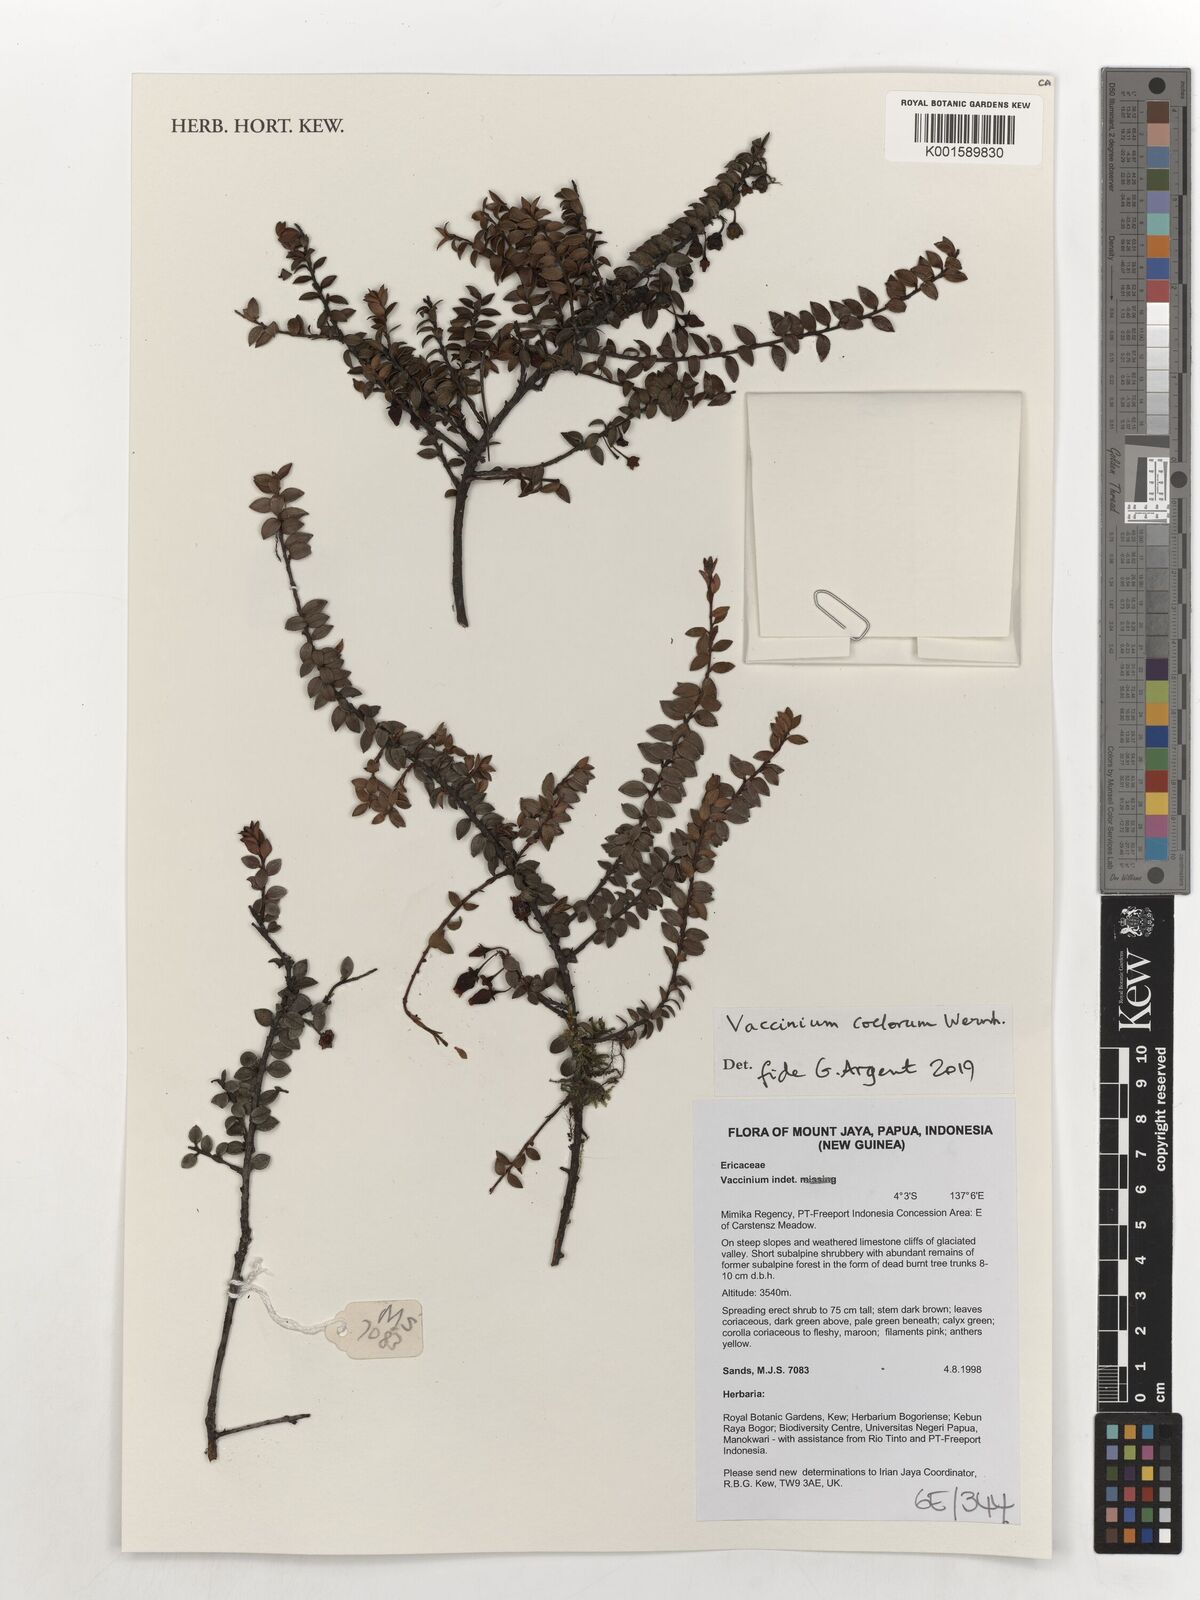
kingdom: Plantae
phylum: Tracheophyta
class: Magnoliopsida
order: Ericales
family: Ericaceae
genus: Vaccinium
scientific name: Vaccinium coelorum
